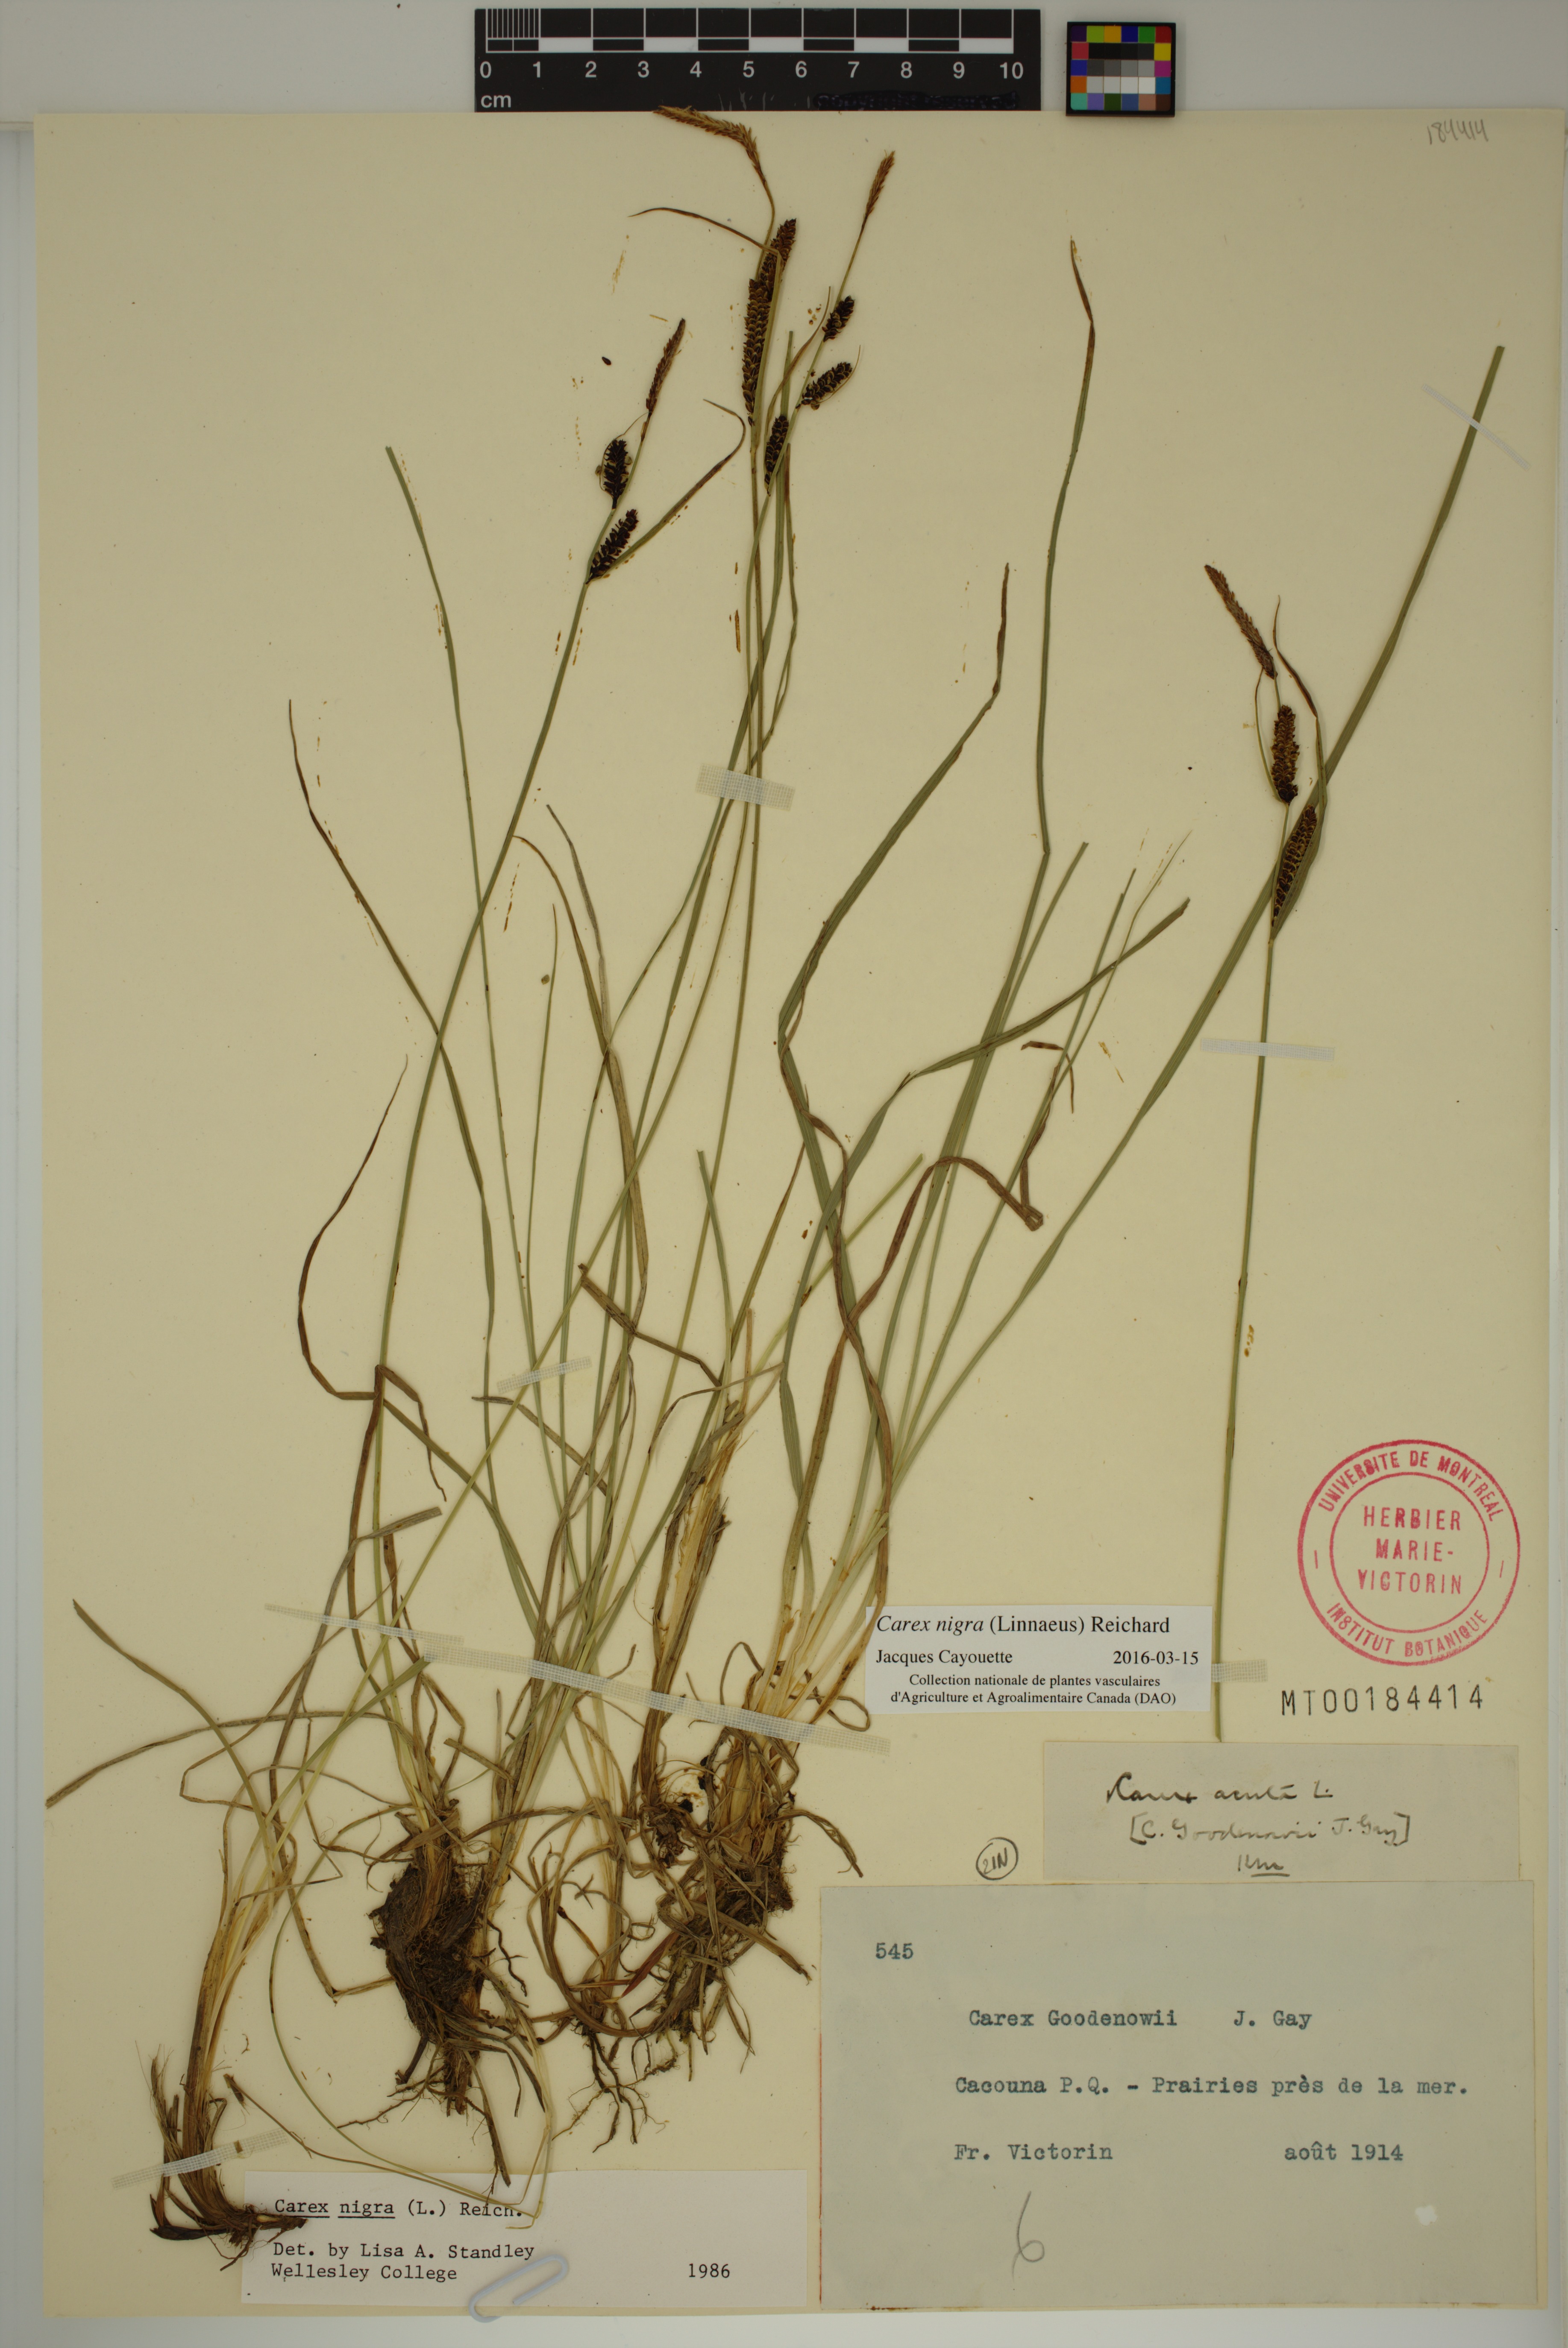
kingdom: Plantae
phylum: Tracheophyta
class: Liliopsida
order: Poales
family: Cyperaceae
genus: Carex
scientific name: Carex nigra
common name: Common sedge
